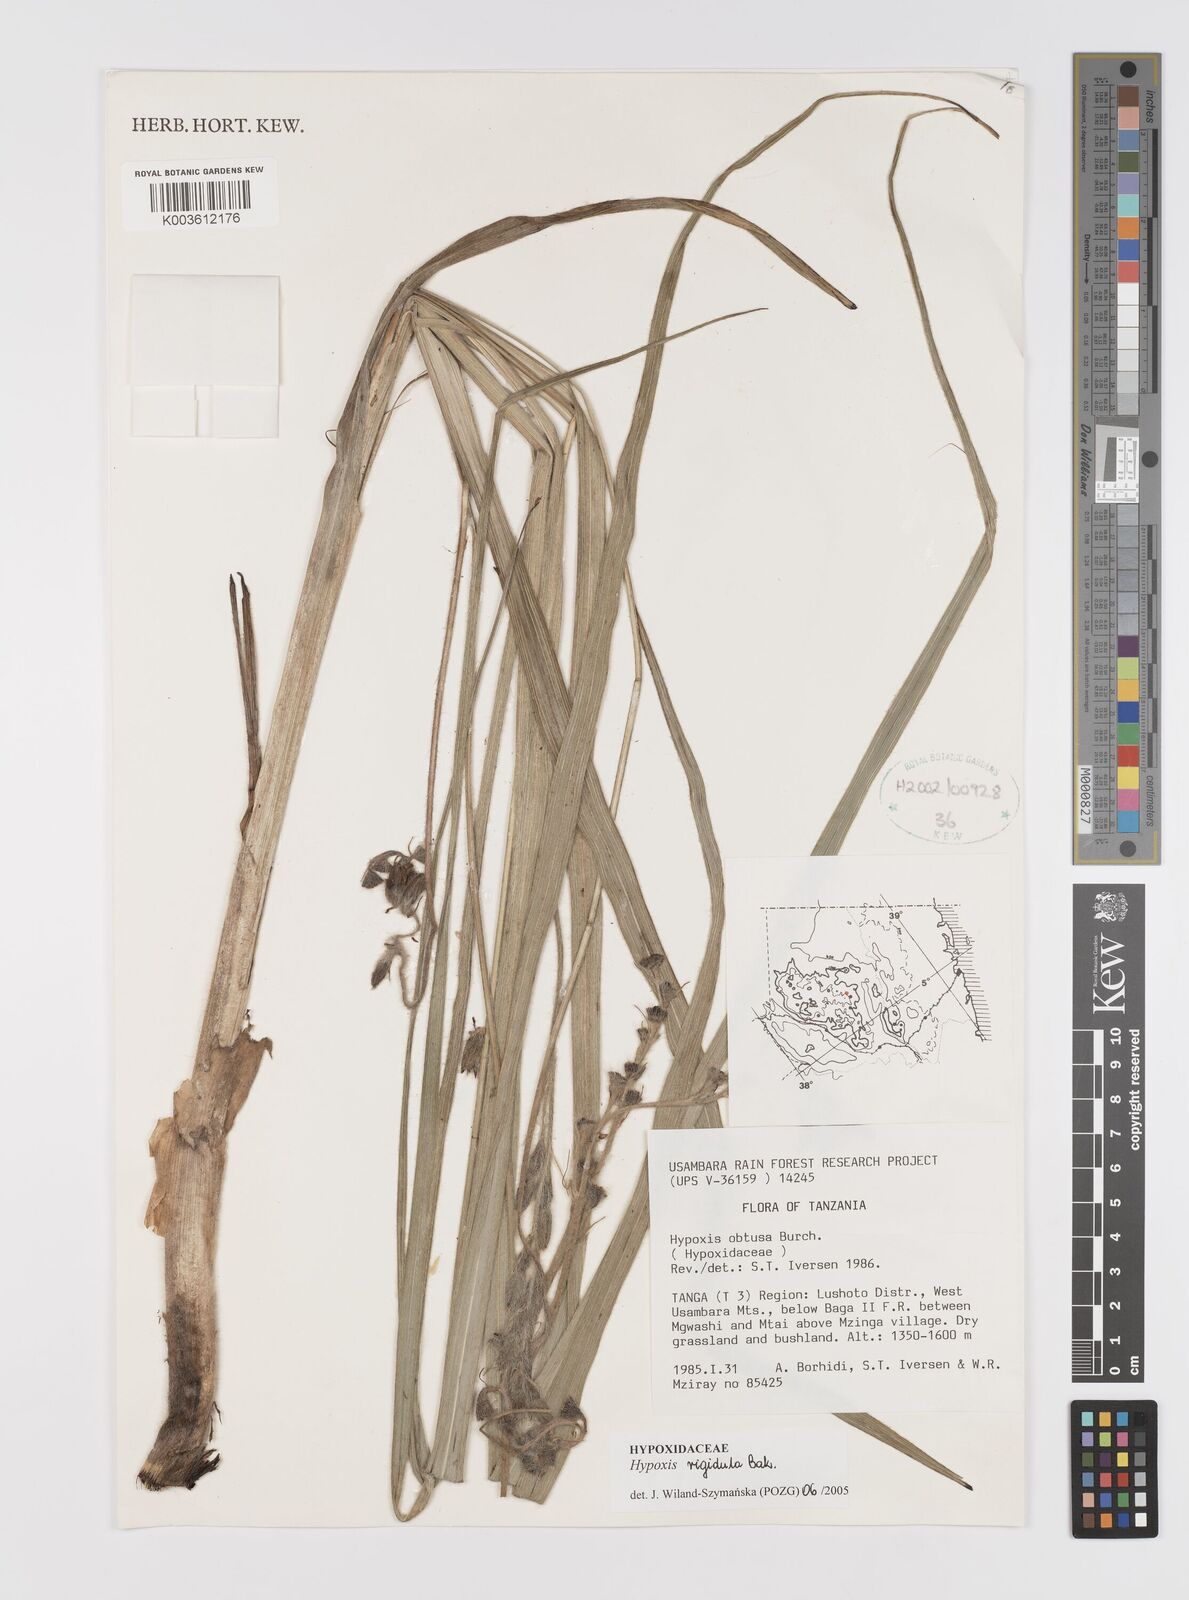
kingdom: Plantae
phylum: Tracheophyta
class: Liliopsida
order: Asparagales
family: Hypoxidaceae
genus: Hypoxis
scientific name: Hypoxis rigidula
